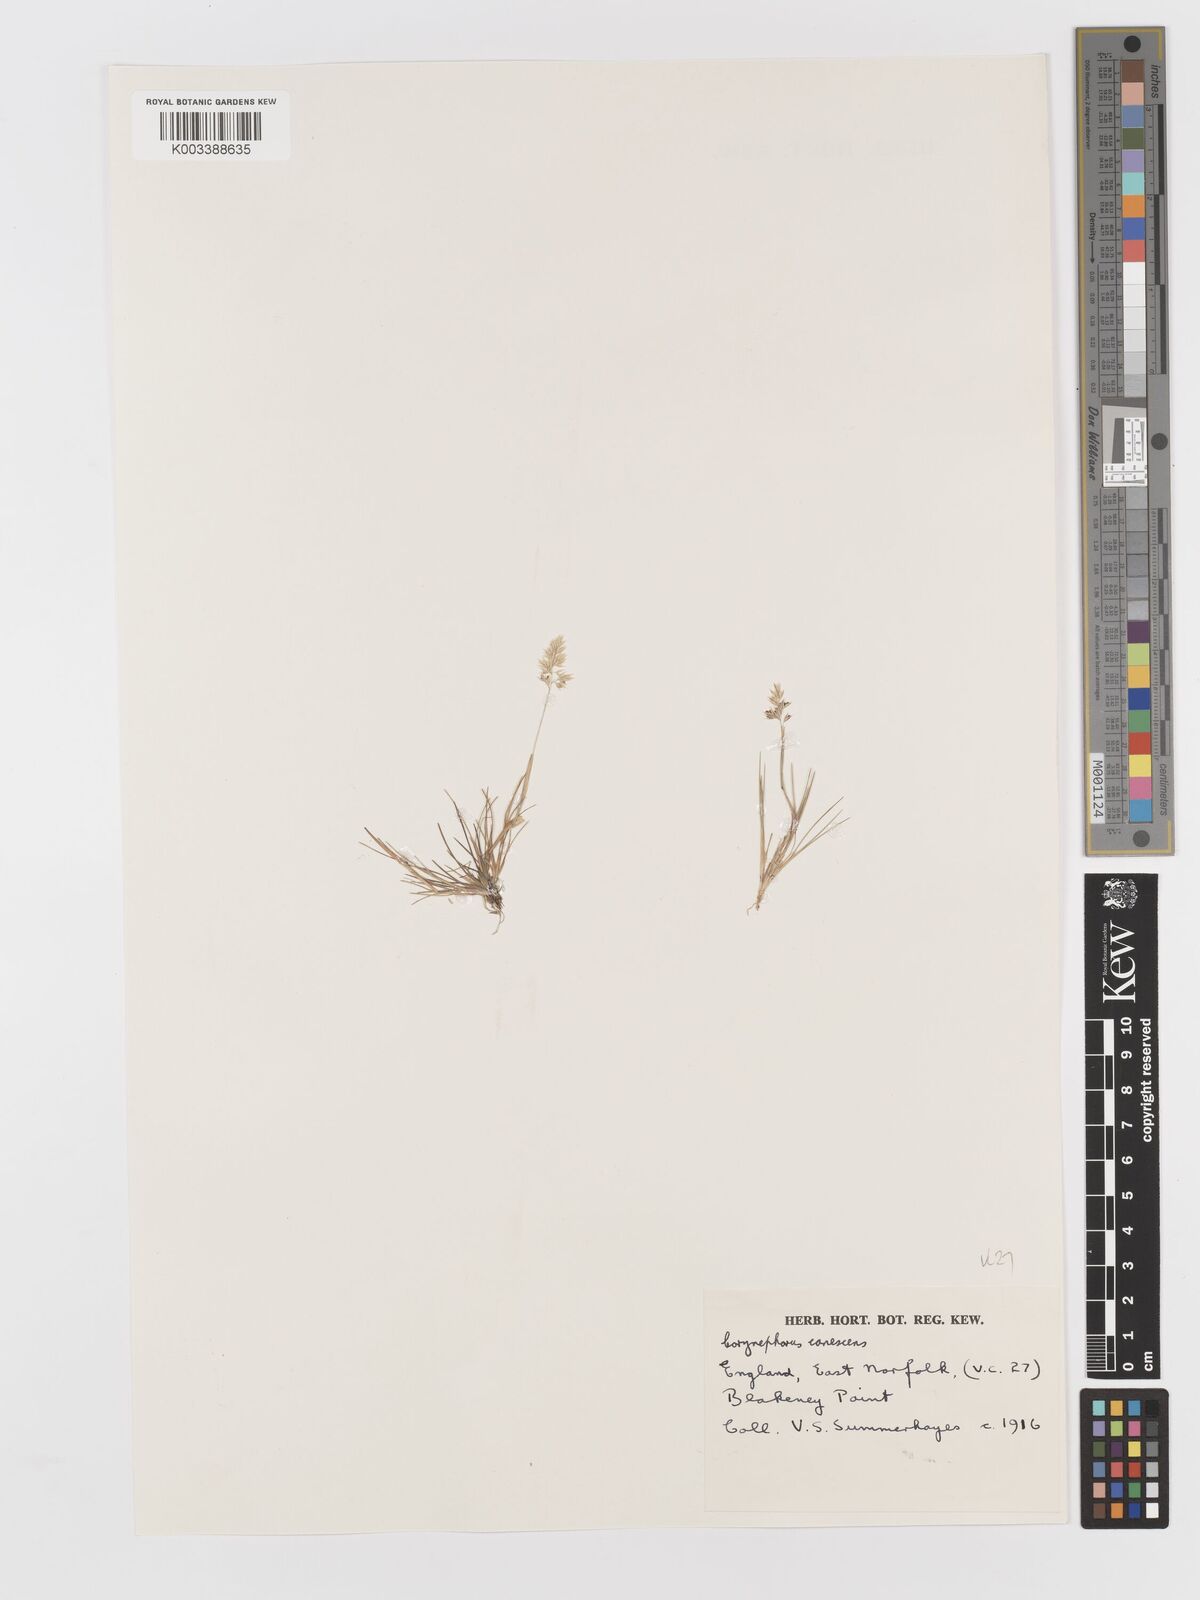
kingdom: Plantae
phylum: Tracheophyta
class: Liliopsida
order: Poales
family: Poaceae
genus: Corynephorus
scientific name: Corynephorus canescens
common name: Grey hair-grass
